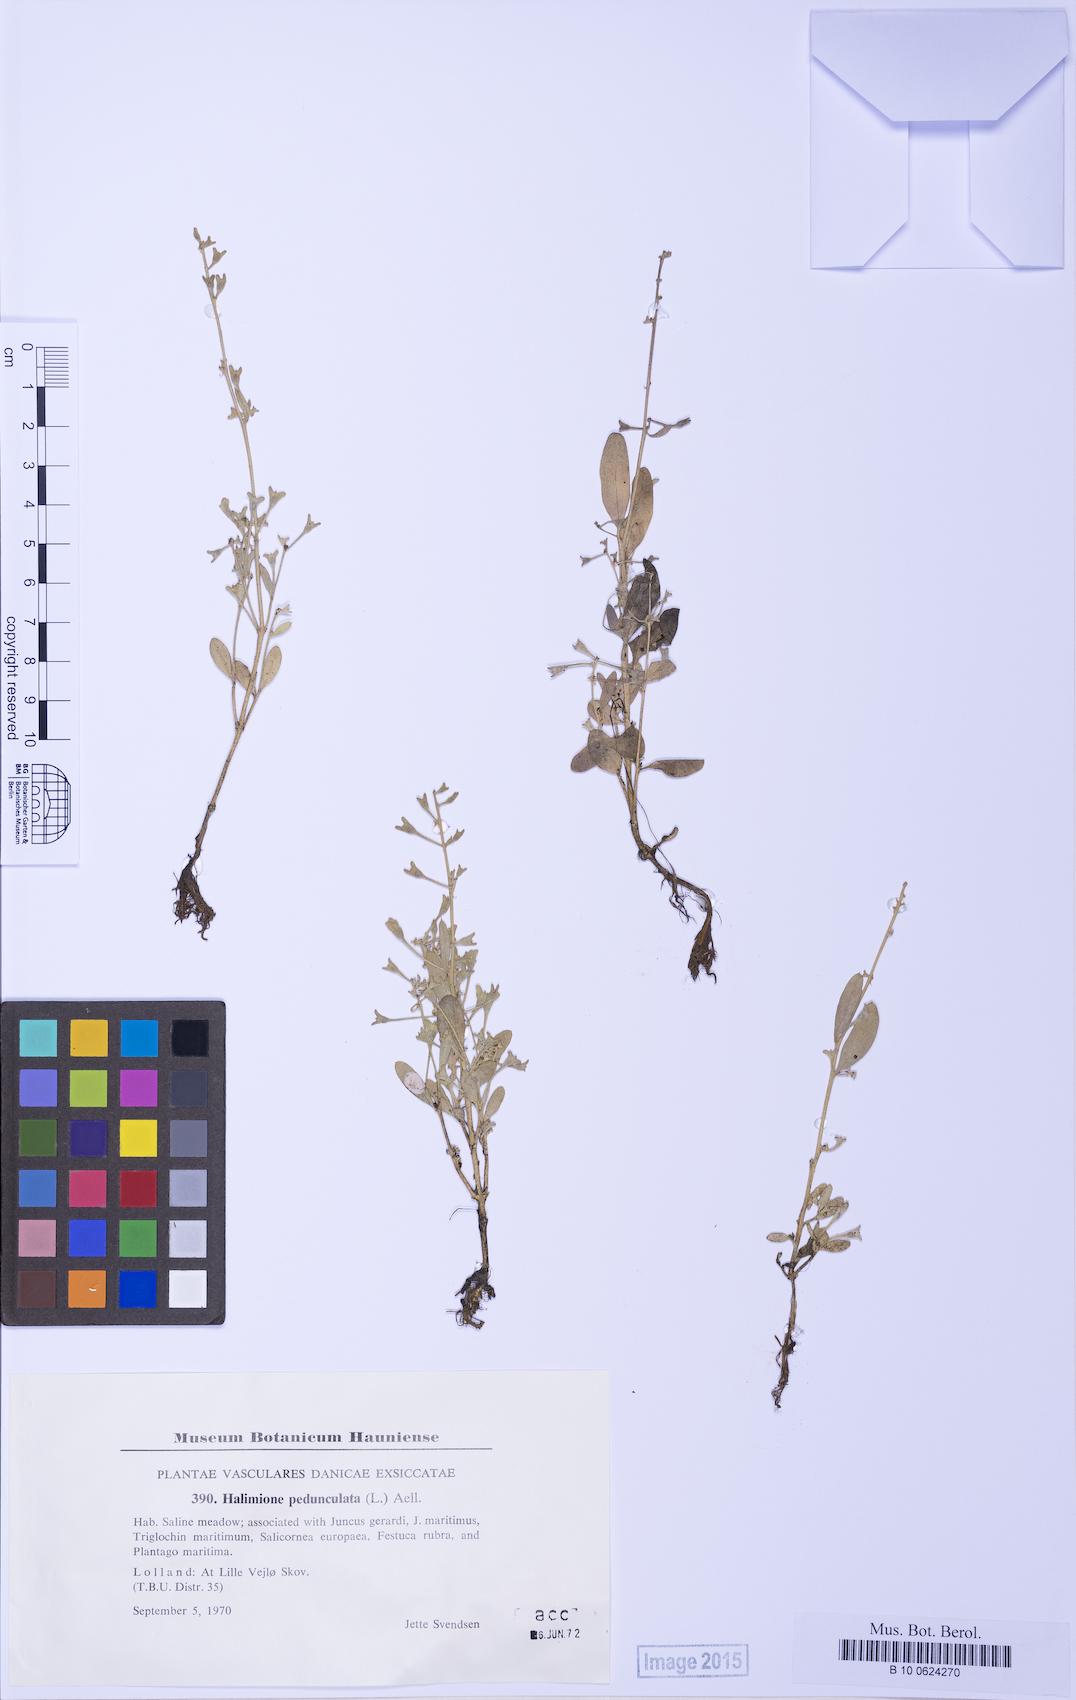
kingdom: Plantae
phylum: Tracheophyta
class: Magnoliopsida
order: Caryophyllales
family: Amaranthaceae
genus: Halimione
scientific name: Halimione pedunculata
